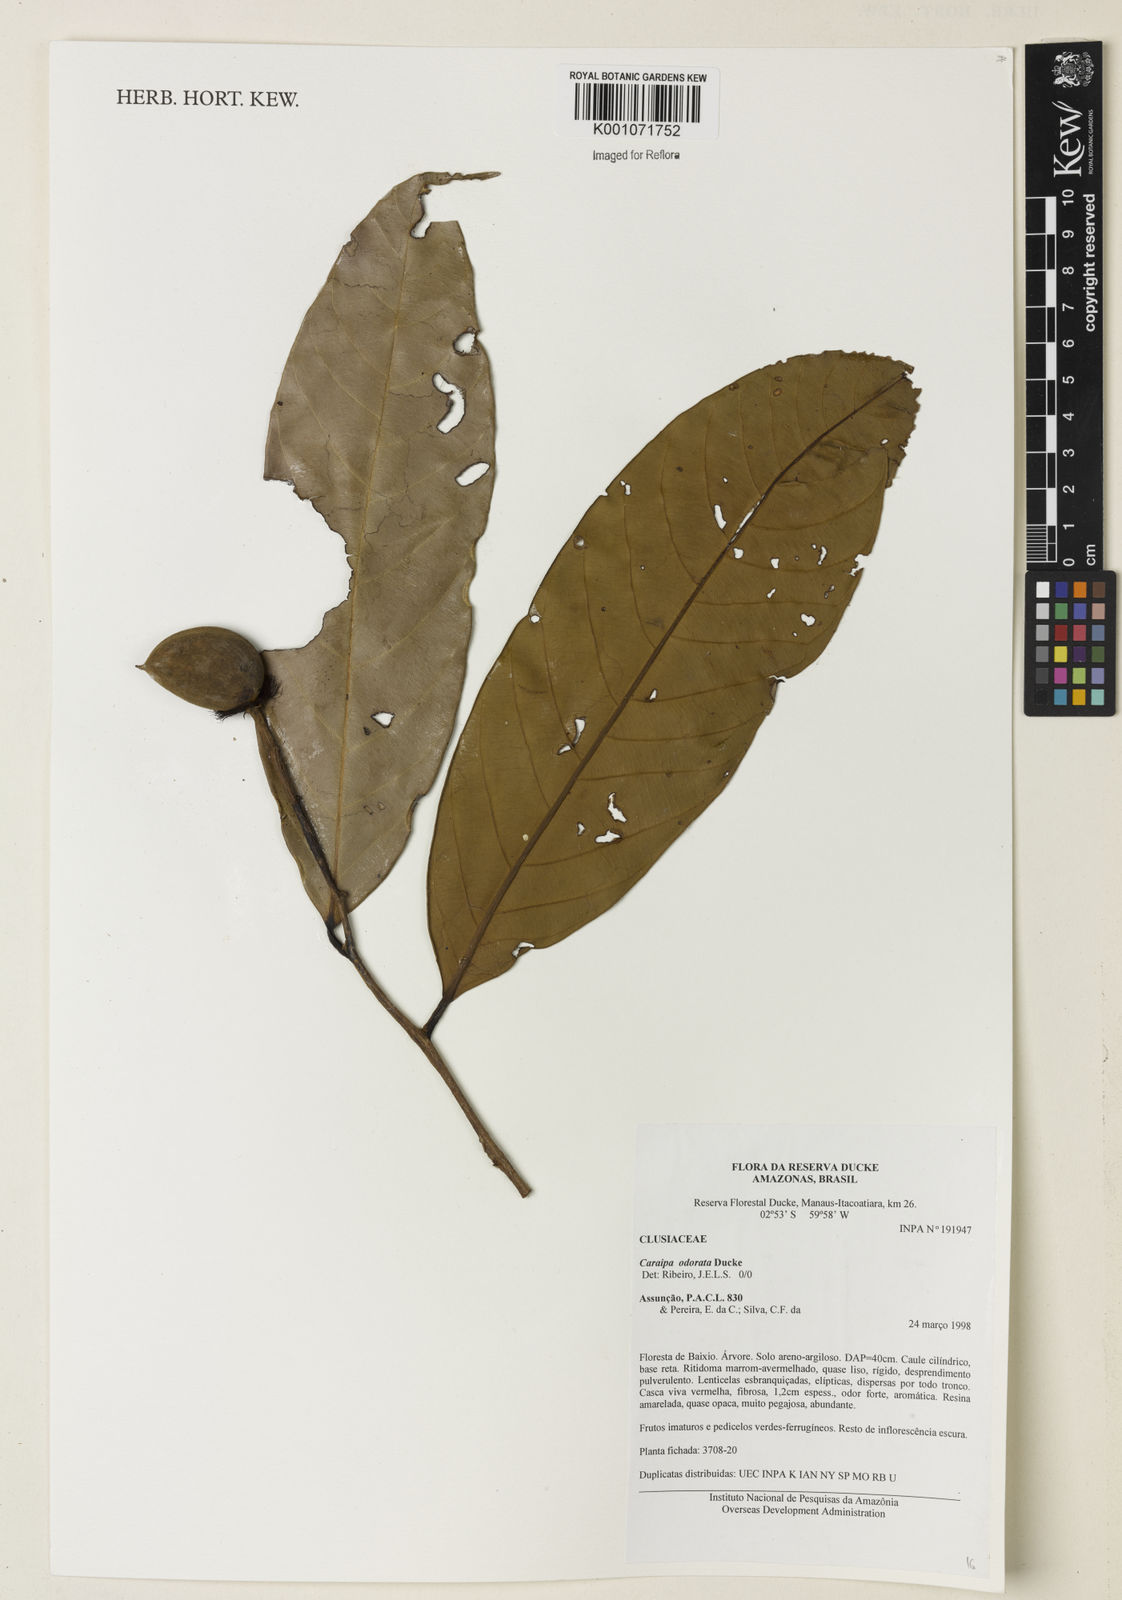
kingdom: Plantae
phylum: Tracheophyta
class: Magnoliopsida
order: Malpighiales
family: Calophyllaceae
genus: Caraipa
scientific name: Caraipa odorata
